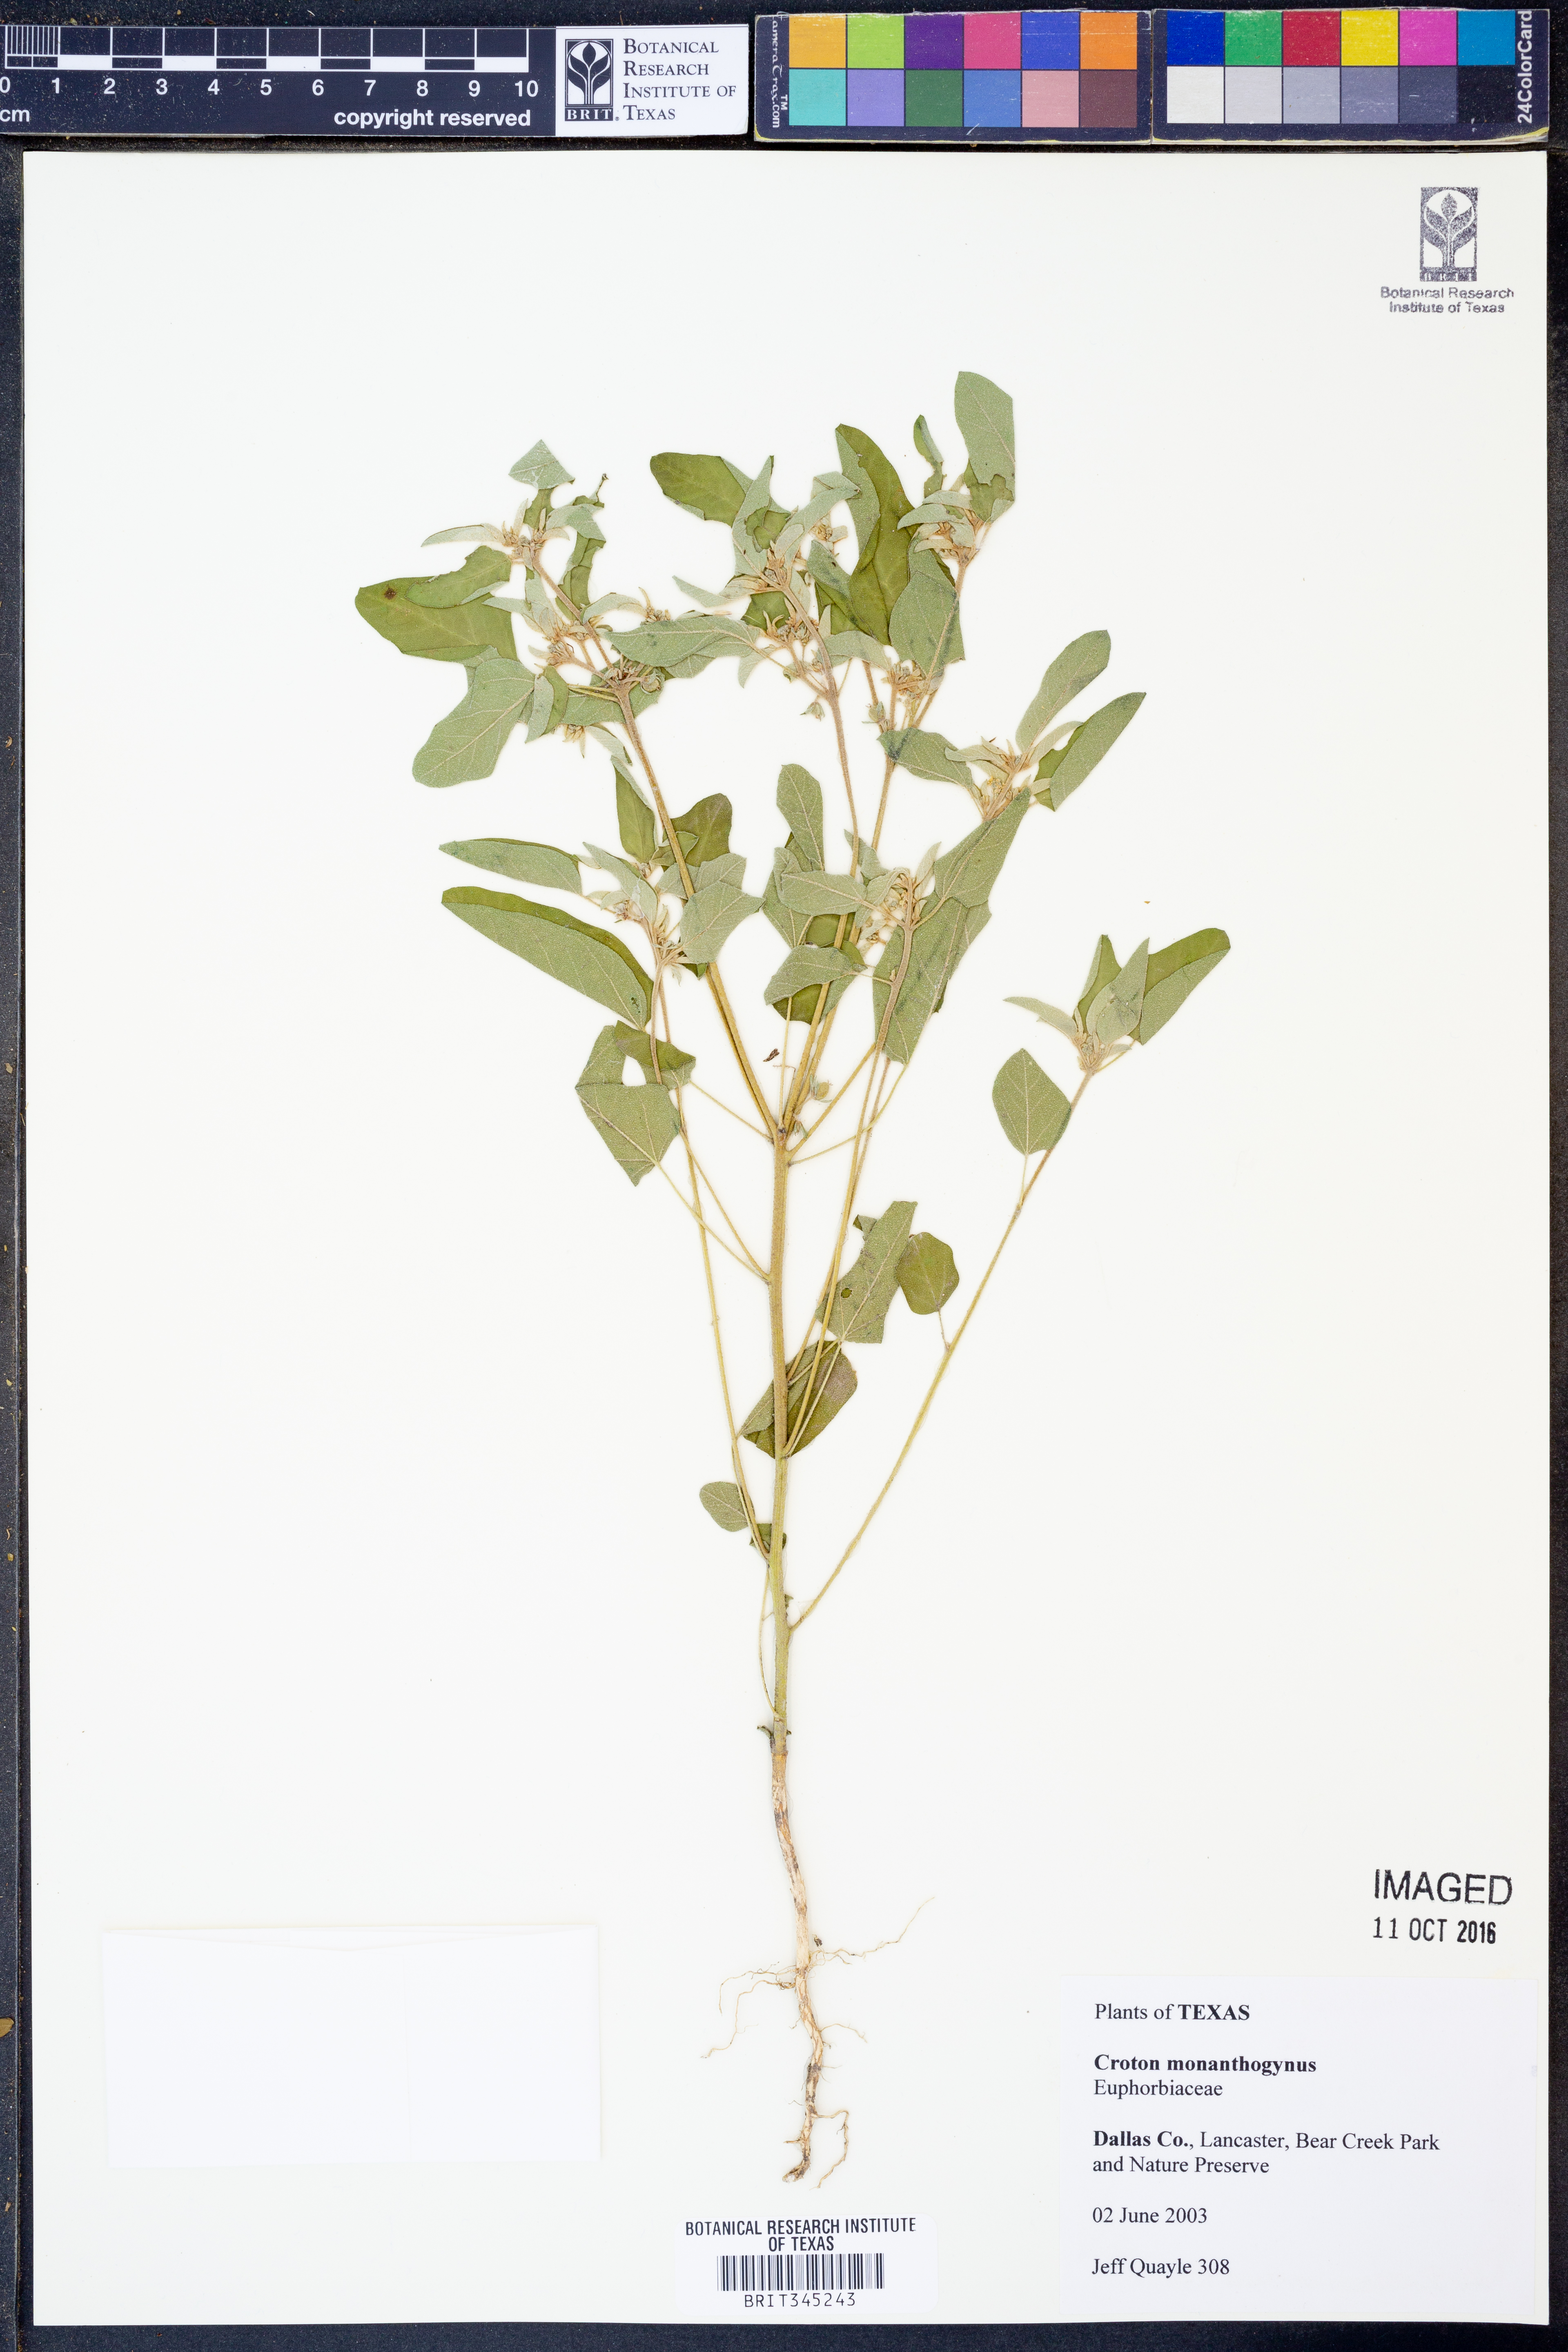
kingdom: Plantae
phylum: Tracheophyta
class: Magnoliopsida
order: Malpighiales
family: Euphorbiaceae
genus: Croton
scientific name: Croton monanthogynus
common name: One-seed croton
